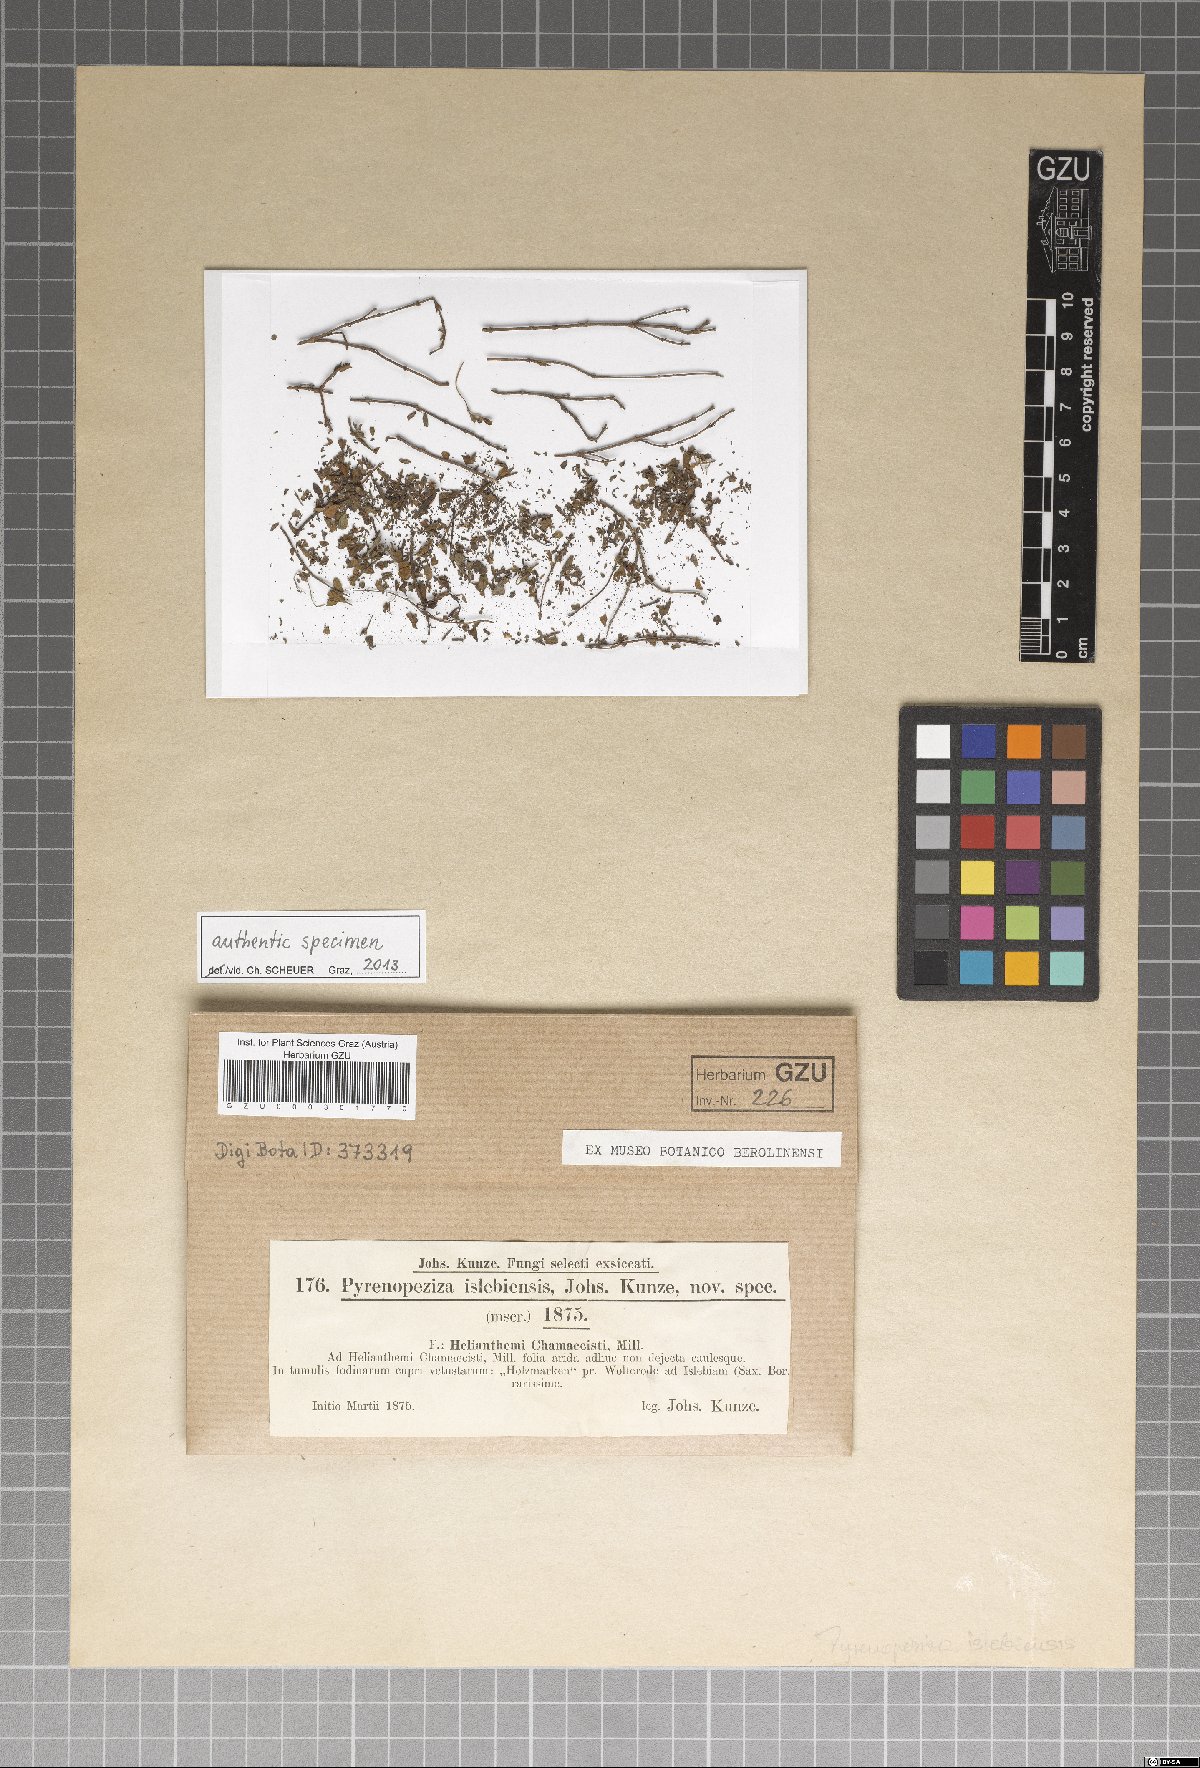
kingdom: Fungi
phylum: Ascomycota
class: Leotiomycetes
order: Helotiales
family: Ploettnerulaceae
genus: Pyrenopeziza
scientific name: Pyrenopeziza islebiensis
